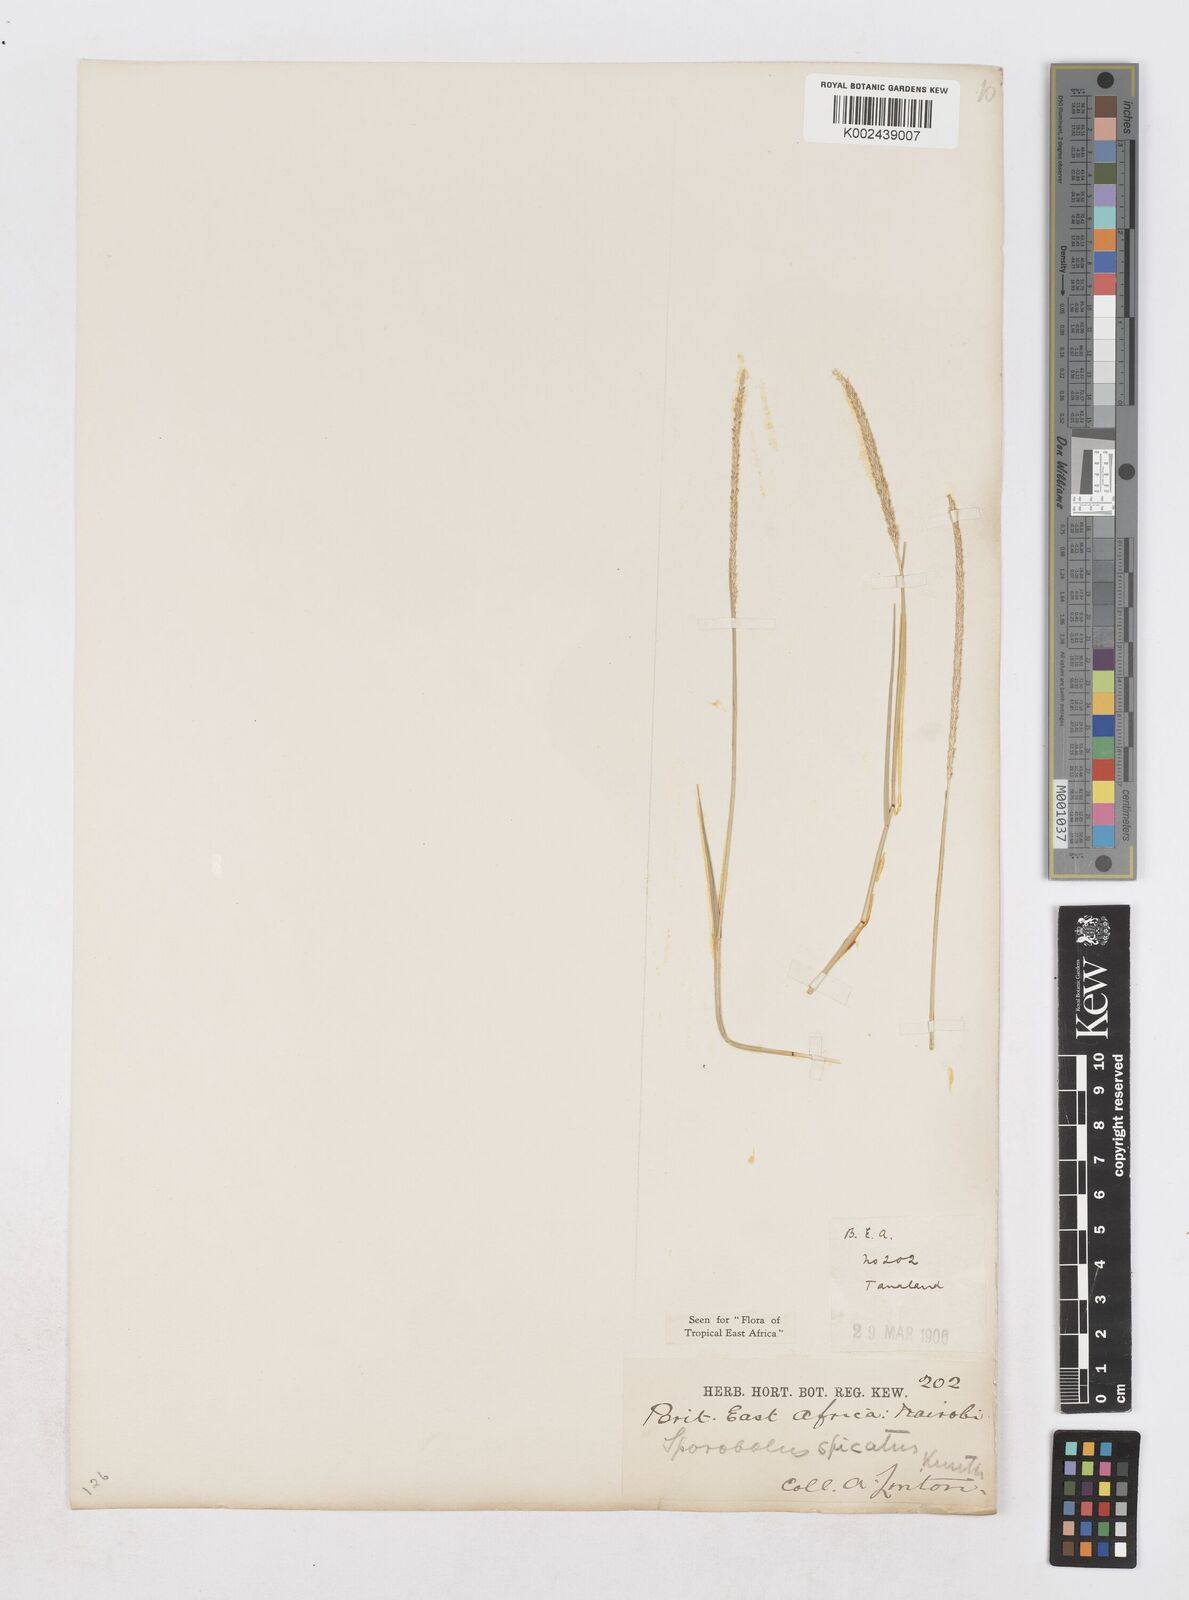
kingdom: Plantae
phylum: Tracheophyta
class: Liliopsida
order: Poales
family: Poaceae
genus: Sporobolus
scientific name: Sporobolus spicatus
